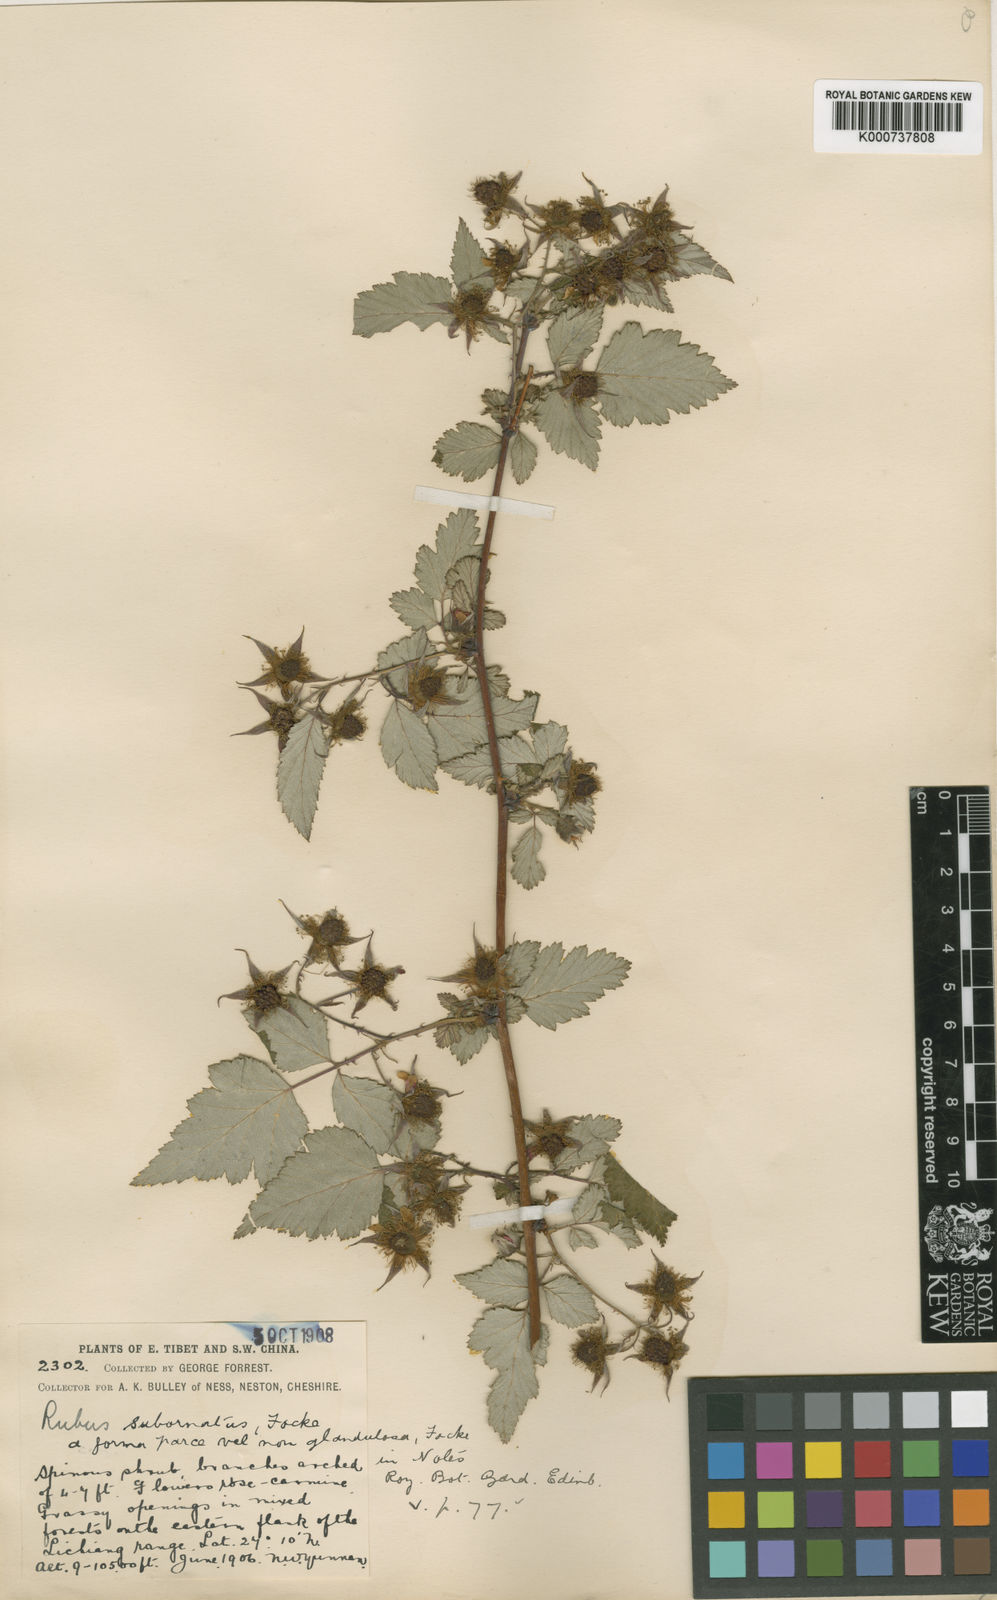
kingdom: Plantae
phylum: Tracheophyta
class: Magnoliopsida
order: Rosales
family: Rosaceae
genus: Rubus
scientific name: Rubus subornatus
